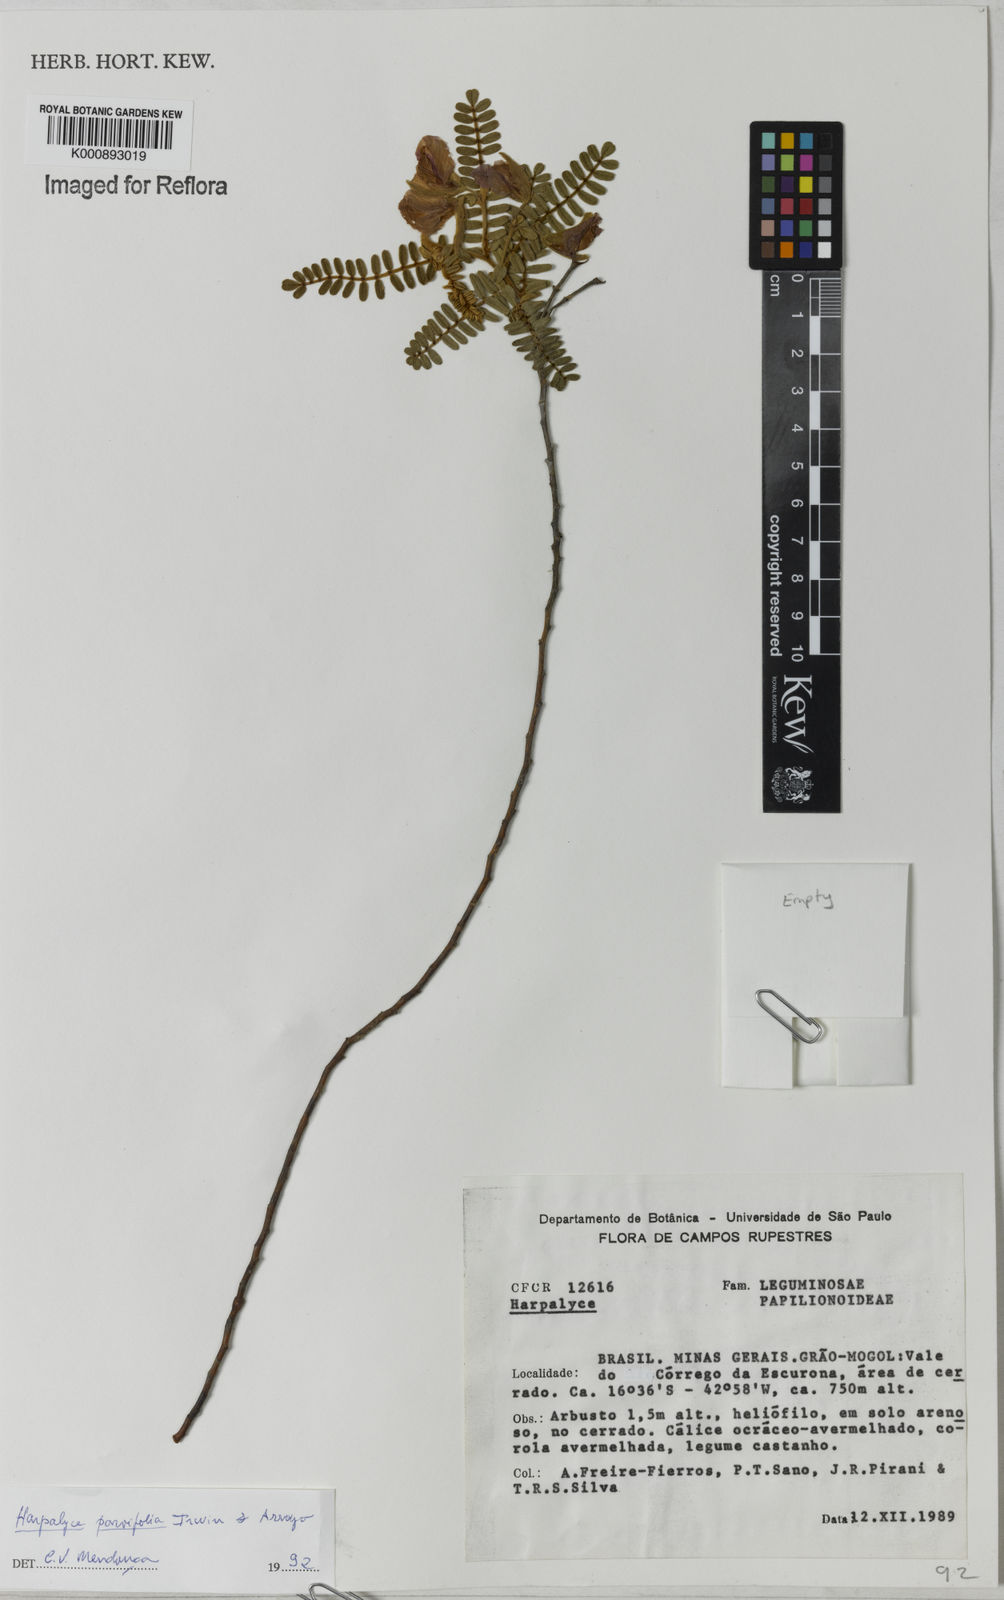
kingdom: Plantae
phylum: Tracheophyta
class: Magnoliopsida
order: Fabales
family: Fabaceae
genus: Harpalyce
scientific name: Harpalyce parvifolia
